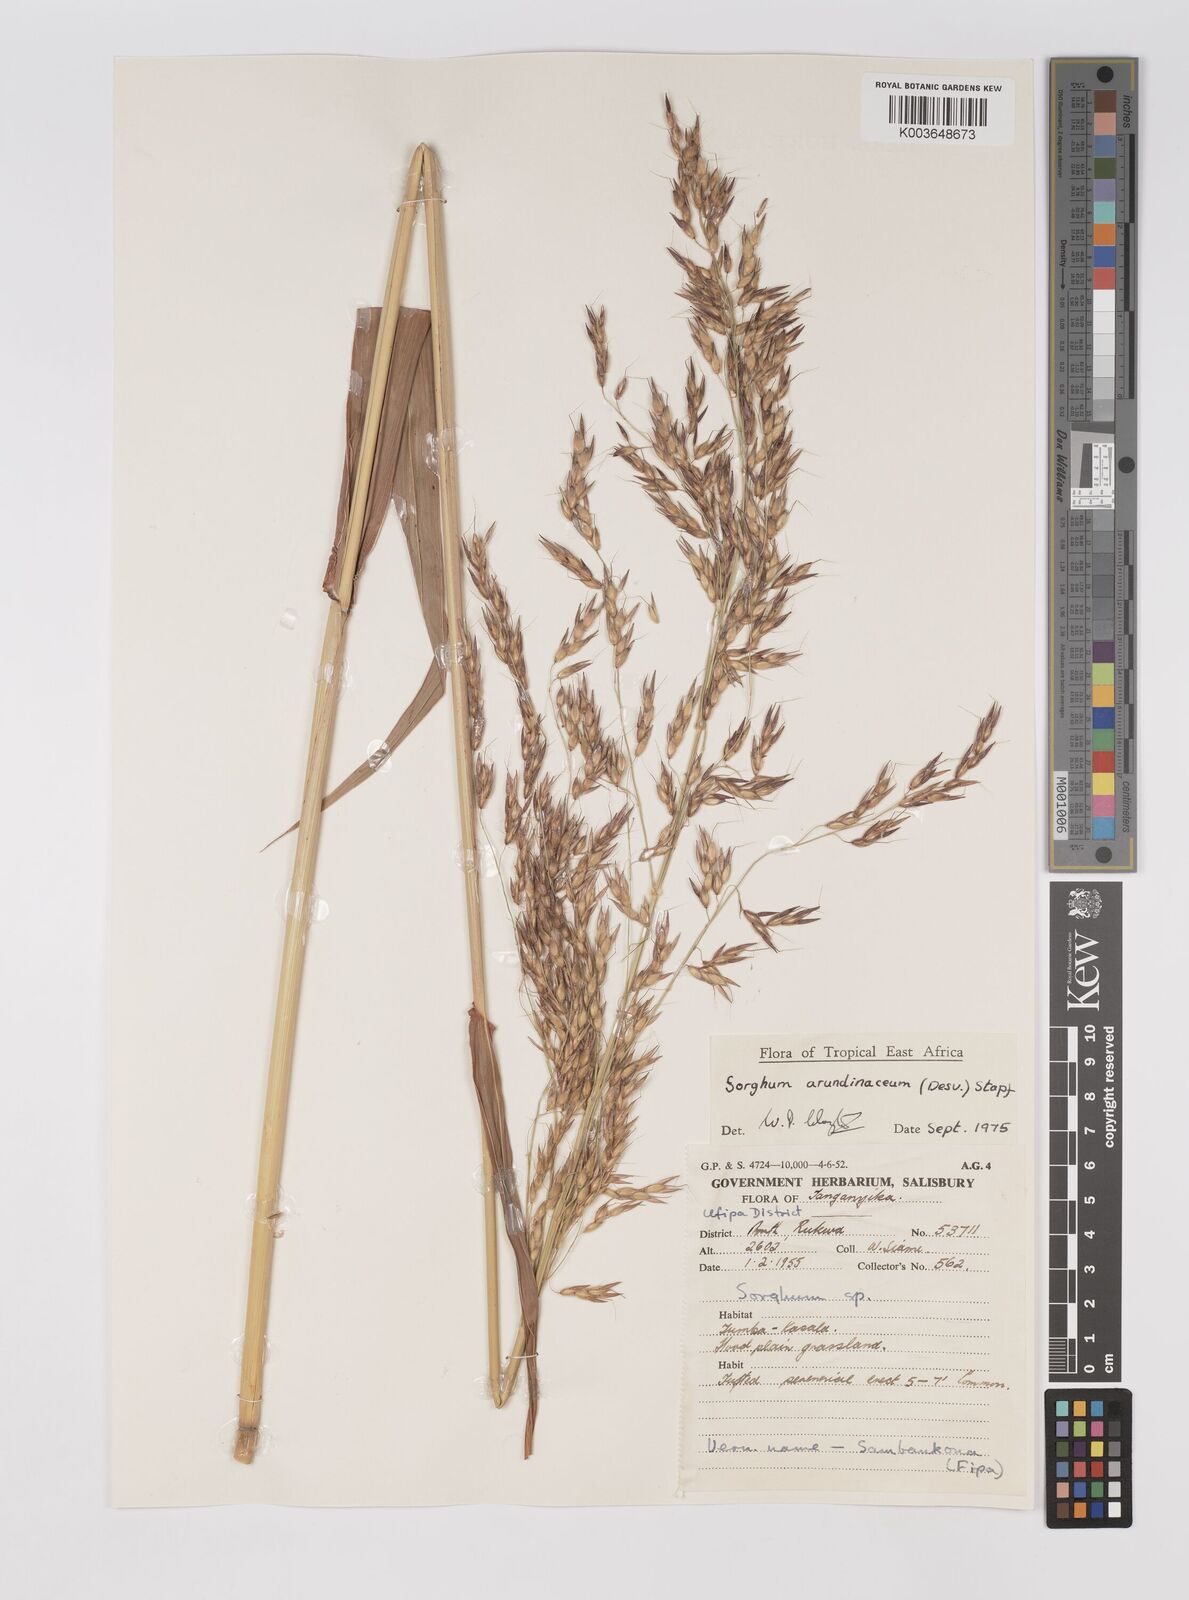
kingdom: Plantae
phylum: Tracheophyta
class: Liliopsida
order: Poales
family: Poaceae
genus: Sorghum
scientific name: Sorghum arundinaceum
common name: Sorghum
